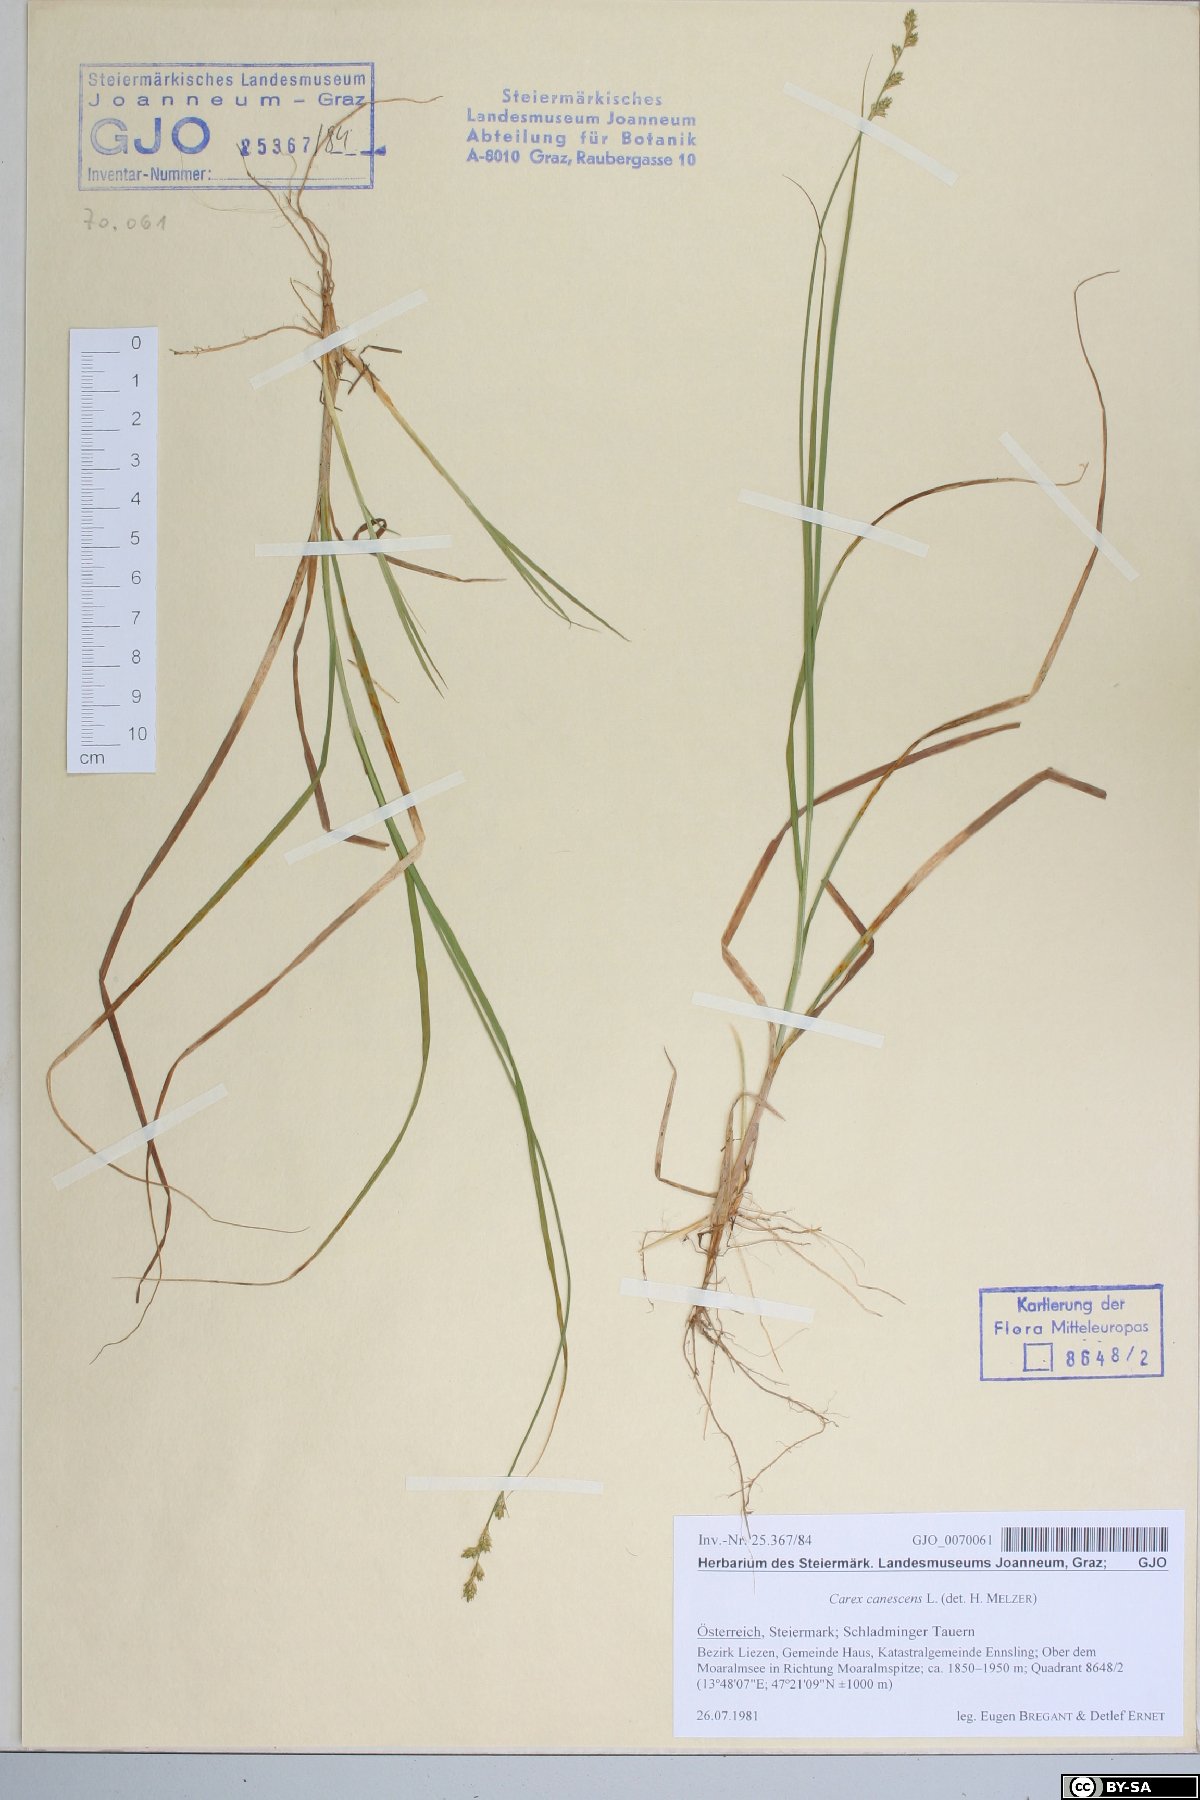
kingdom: Plantae
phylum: Tracheophyta
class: Liliopsida
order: Poales
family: Cyperaceae
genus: Carex
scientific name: Carex canescens
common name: White sedge
